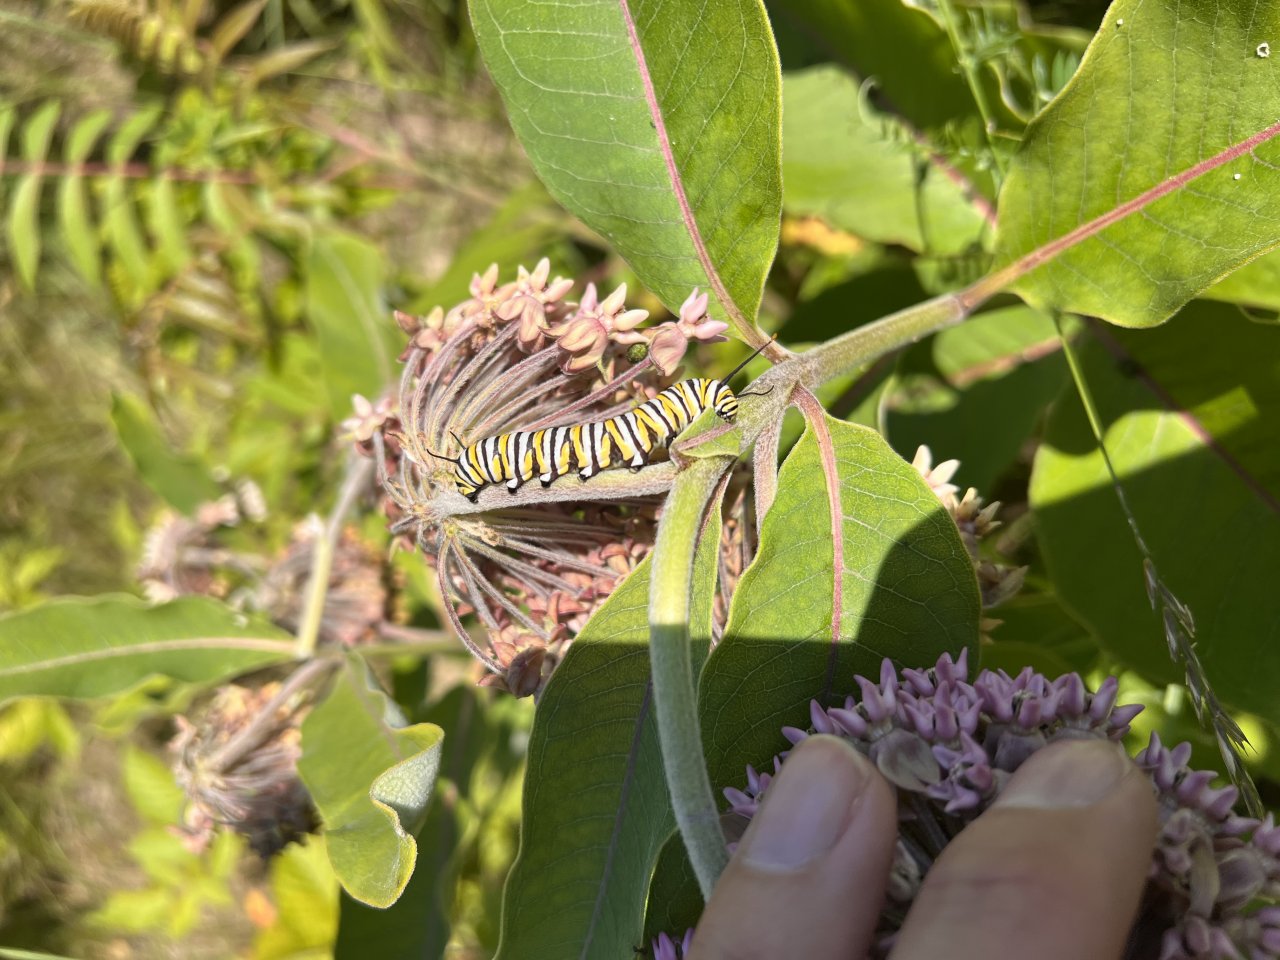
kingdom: Animalia
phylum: Arthropoda
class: Insecta
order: Lepidoptera
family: Nymphalidae
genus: Danaus
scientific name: Danaus plexippus
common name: Monarch
